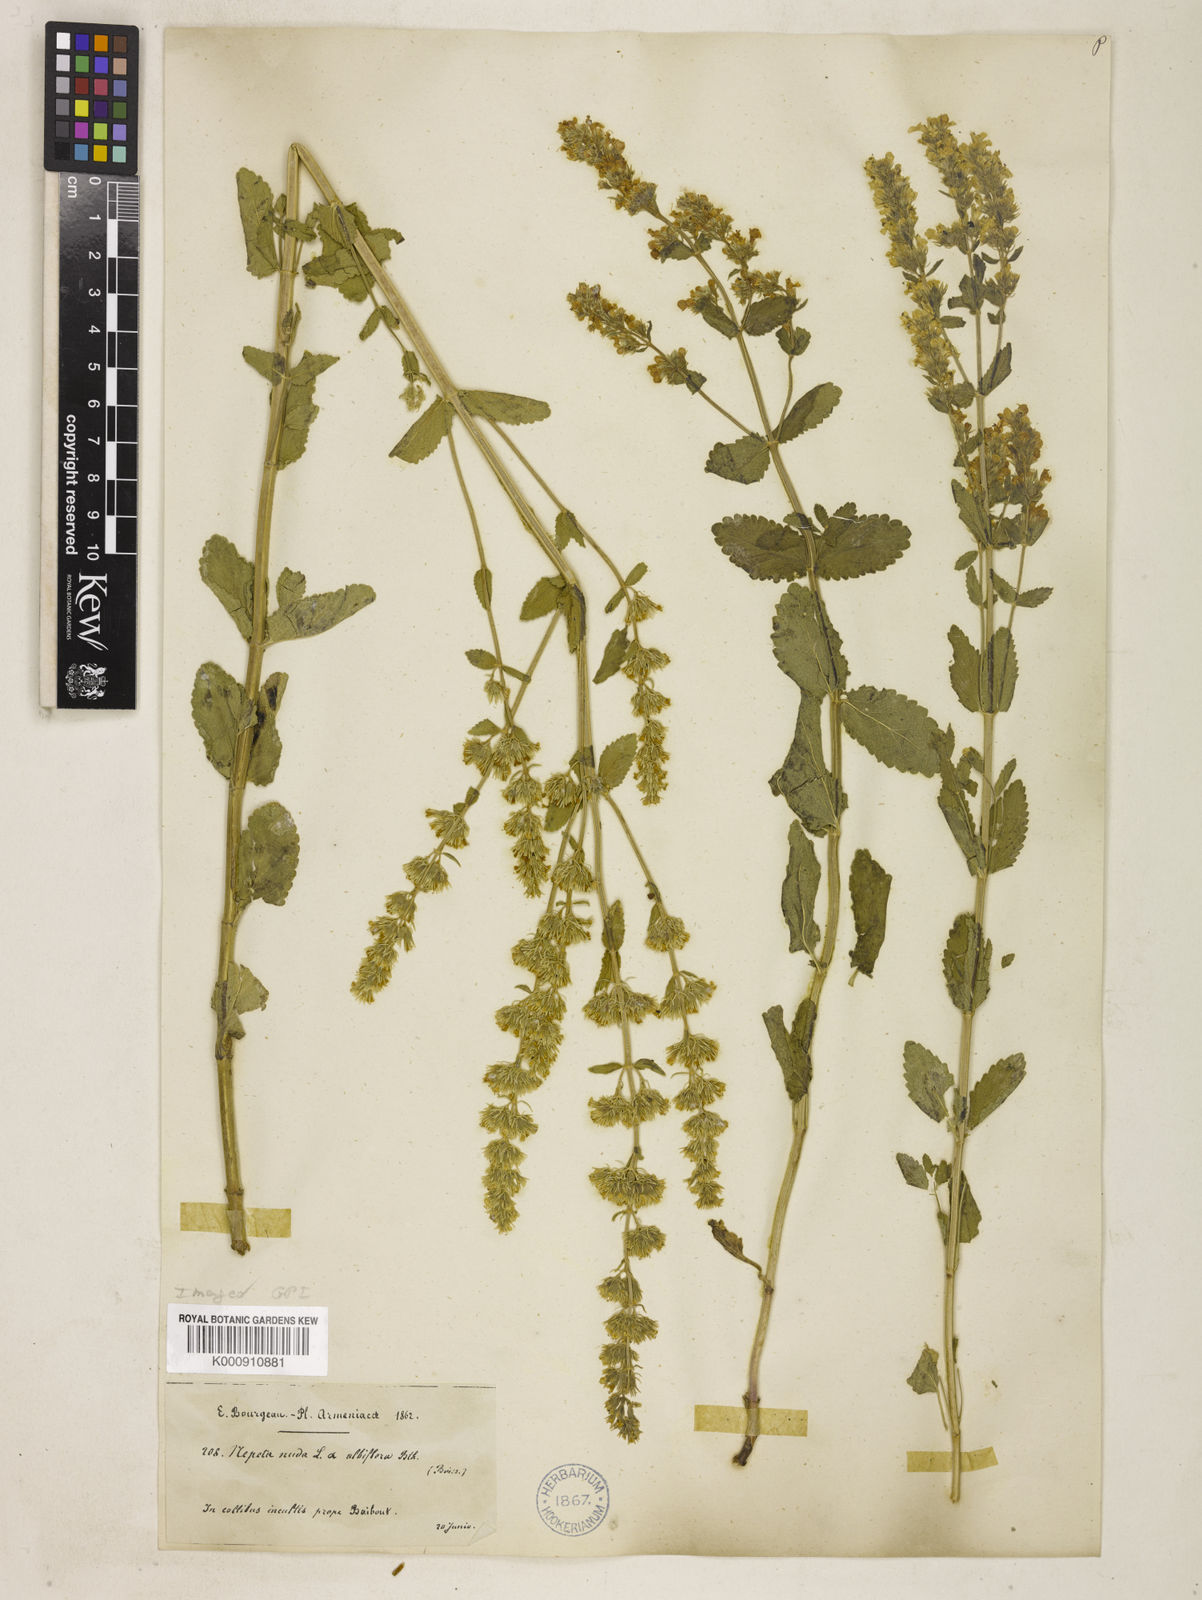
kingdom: Plantae
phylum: Tracheophyta
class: Magnoliopsida
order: Lamiales
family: Lamiaceae
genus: Nepeta
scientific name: Nepeta nuda
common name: Hairless catmint
